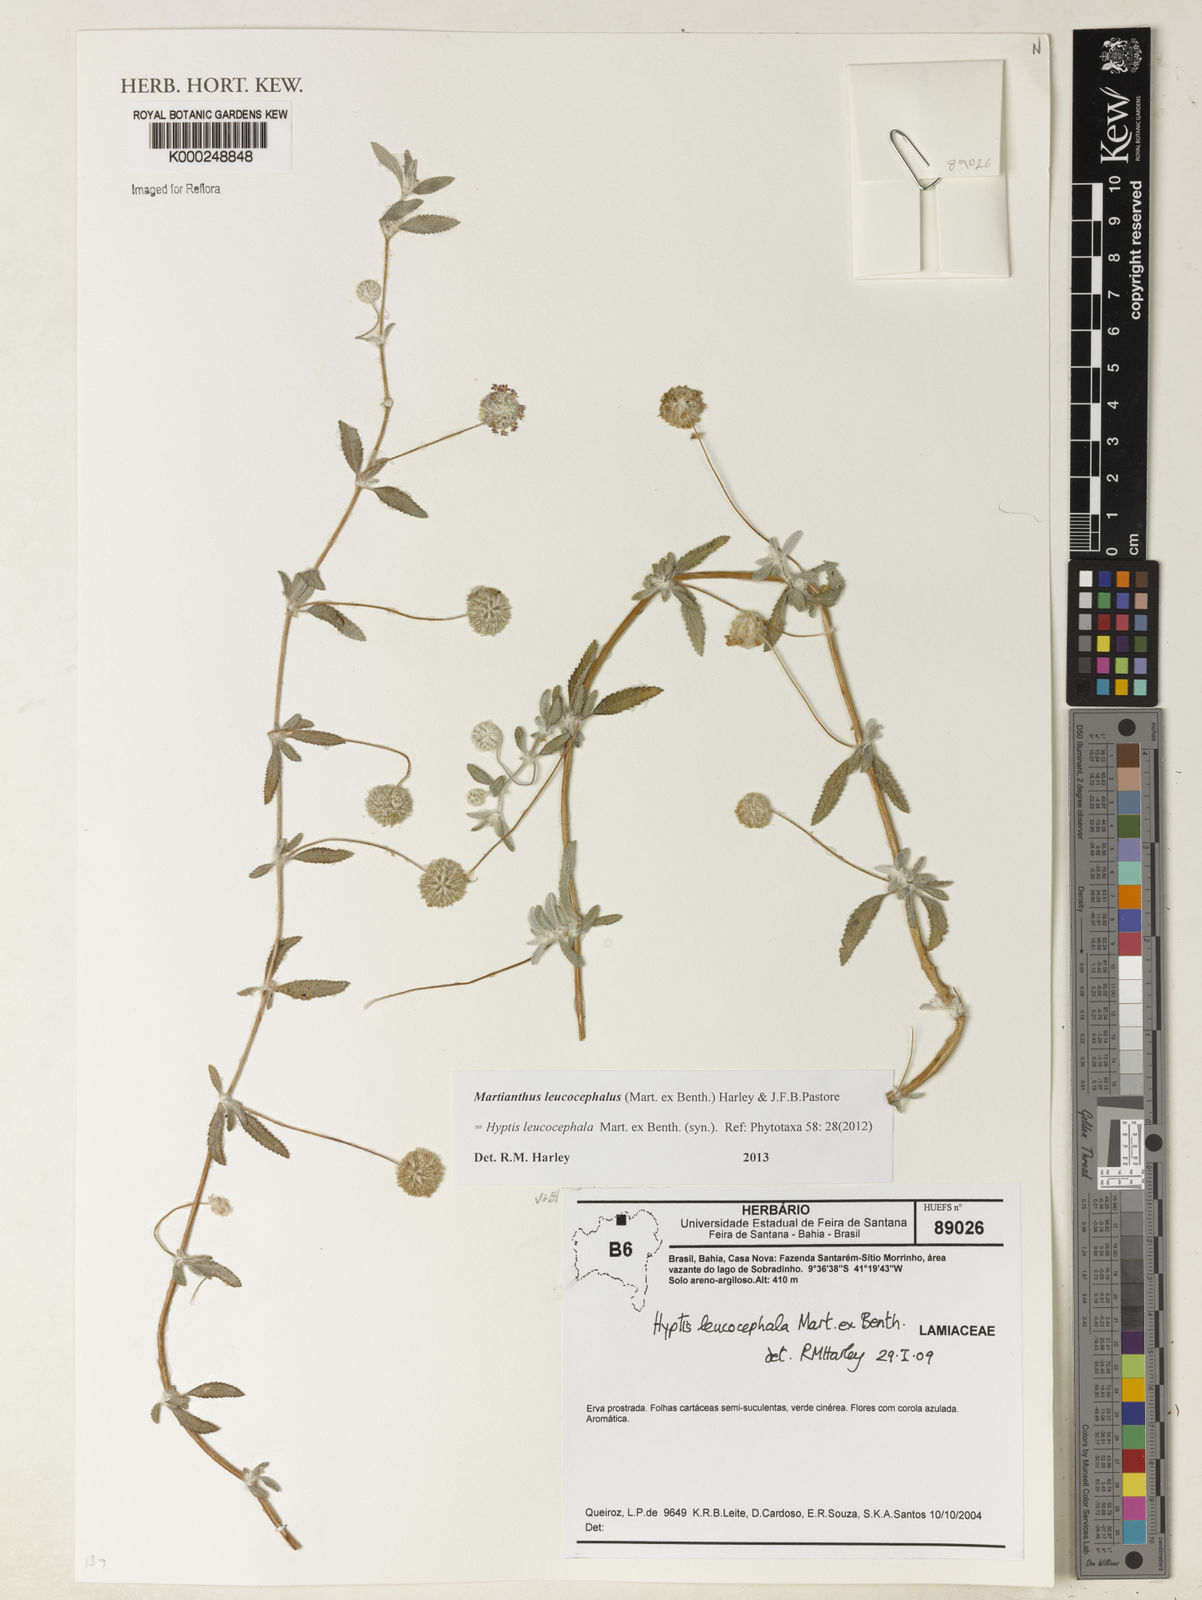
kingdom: Plantae
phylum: Tracheophyta
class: Magnoliopsida
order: Lamiales
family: Lamiaceae
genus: Martianthus
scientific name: Martianthus leucocephalus
